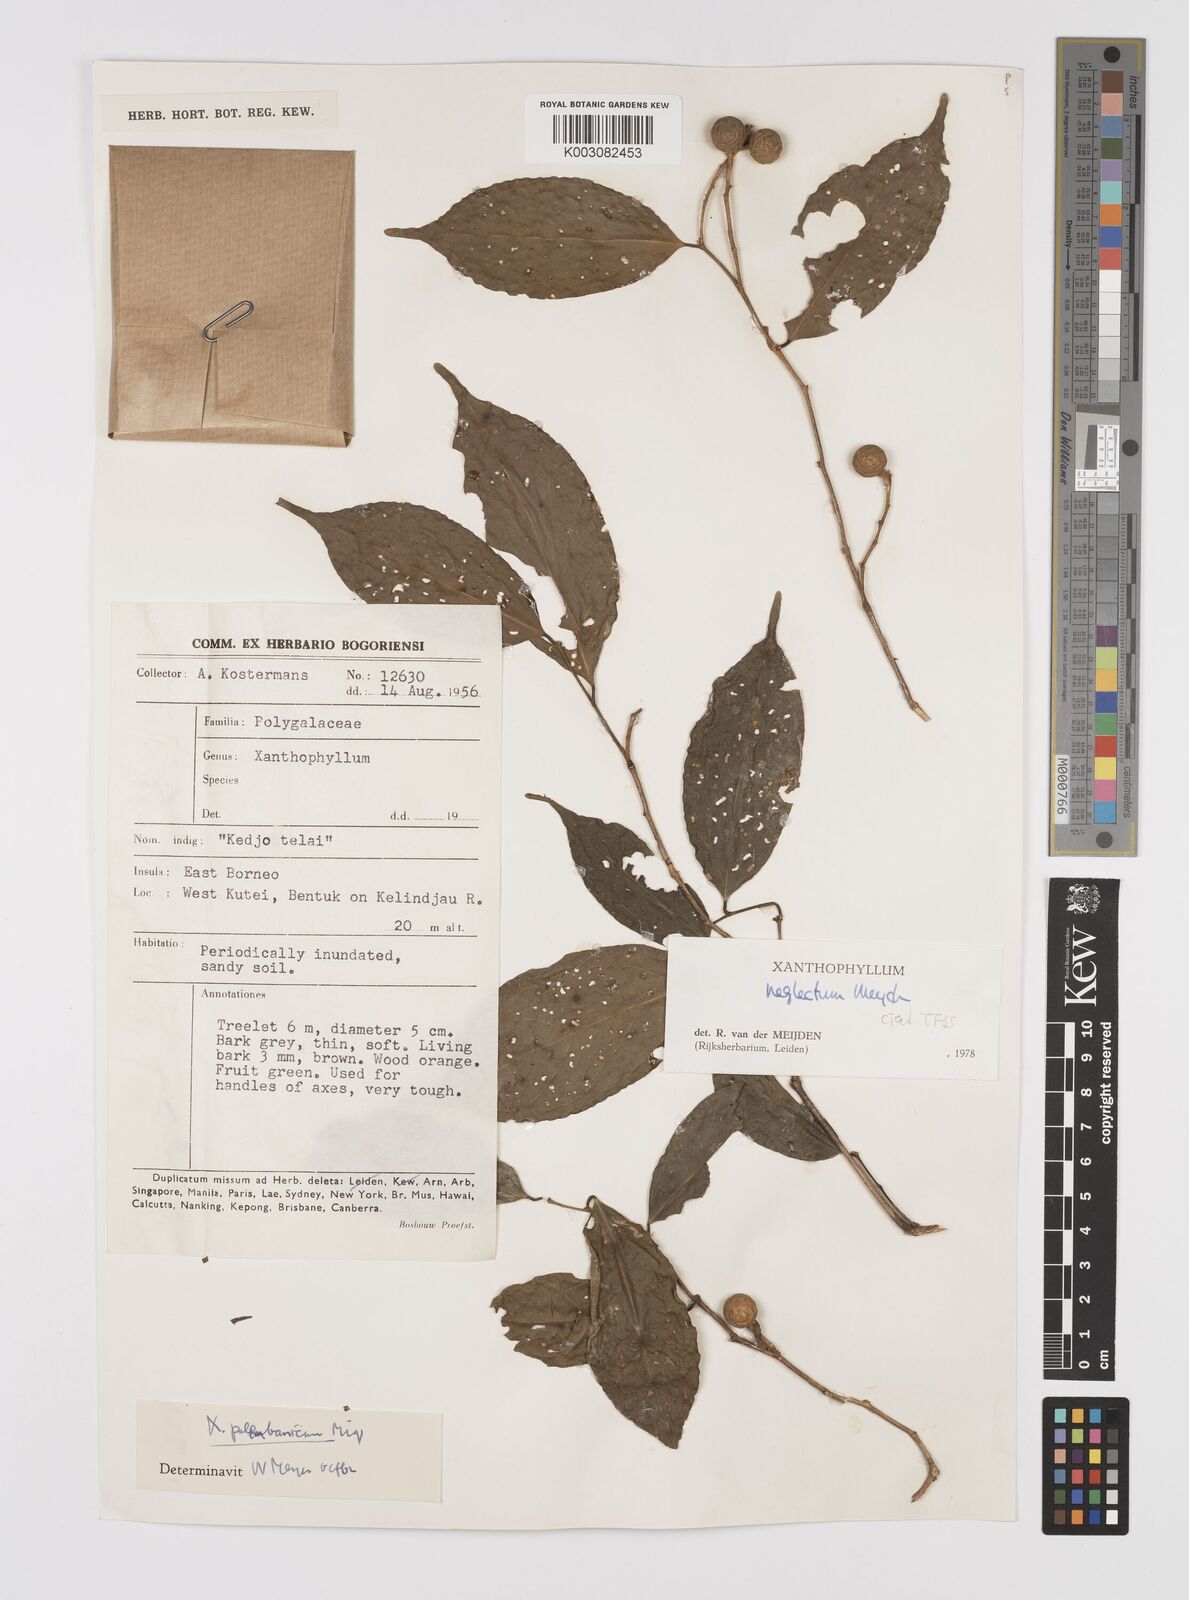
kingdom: Plantae
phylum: Tracheophyta
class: Magnoliopsida
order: Fabales
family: Polygalaceae
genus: Xanthophyllum
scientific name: Xanthophyllum neglectum
